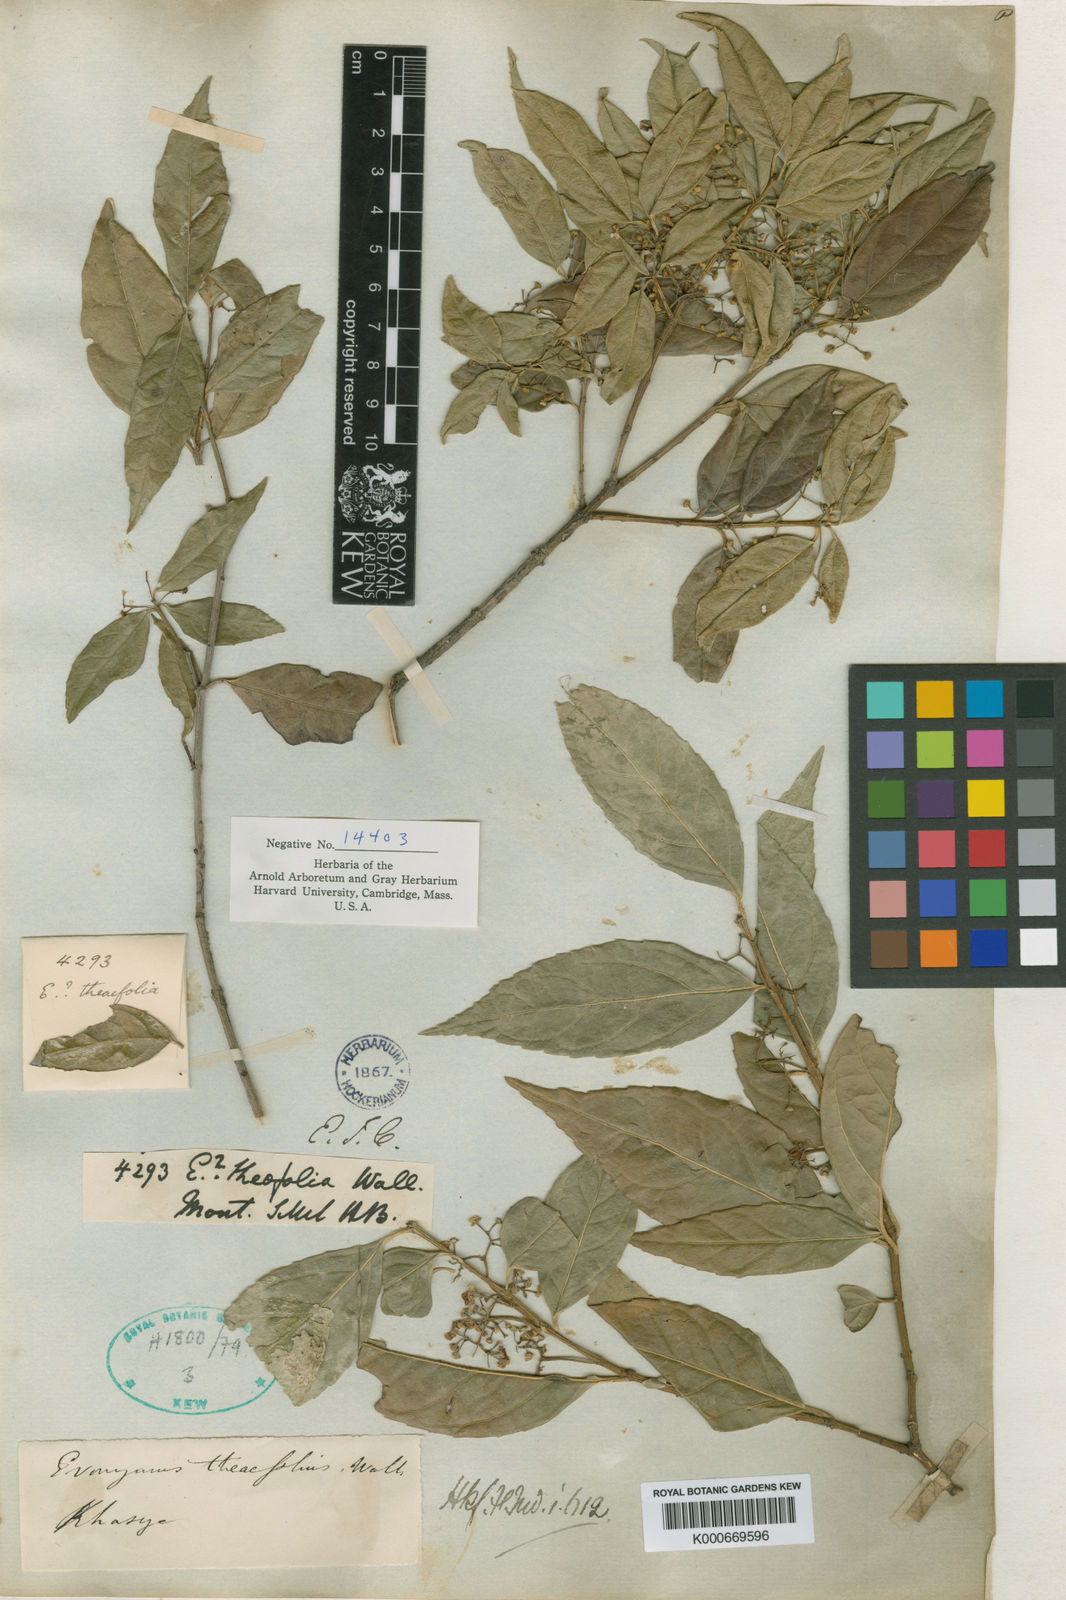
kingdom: Plantae
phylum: Tracheophyta
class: Magnoliopsida
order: Celastrales
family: Celastraceae
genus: Euonymus
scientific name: Euonymus
